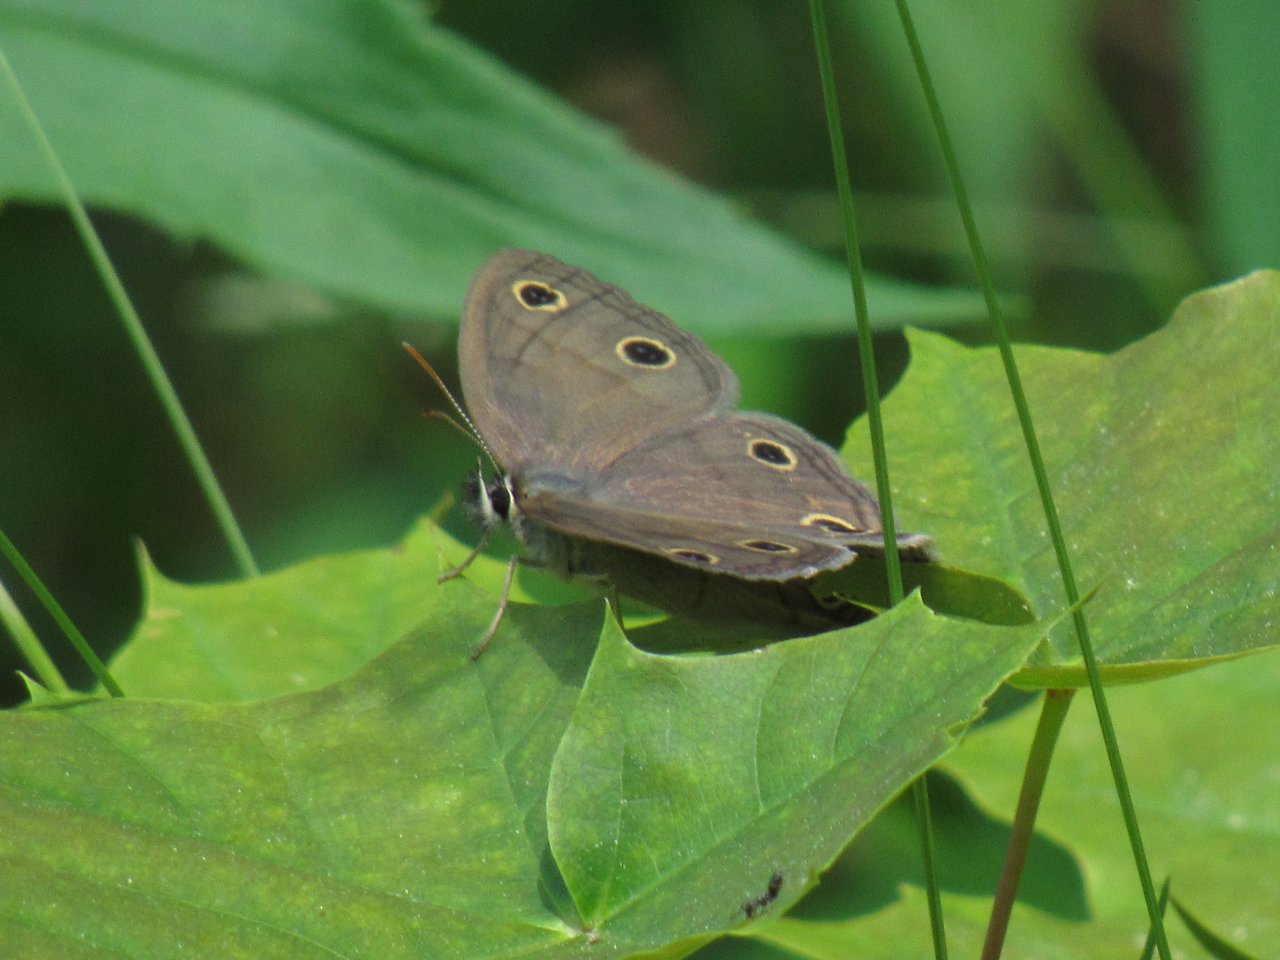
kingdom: Animalia
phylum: Arthropoda
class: Insecta
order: Lepidoptera
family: Nymphalidae
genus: Euptychia
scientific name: Euptychia cymela
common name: Little Wood Satyr
